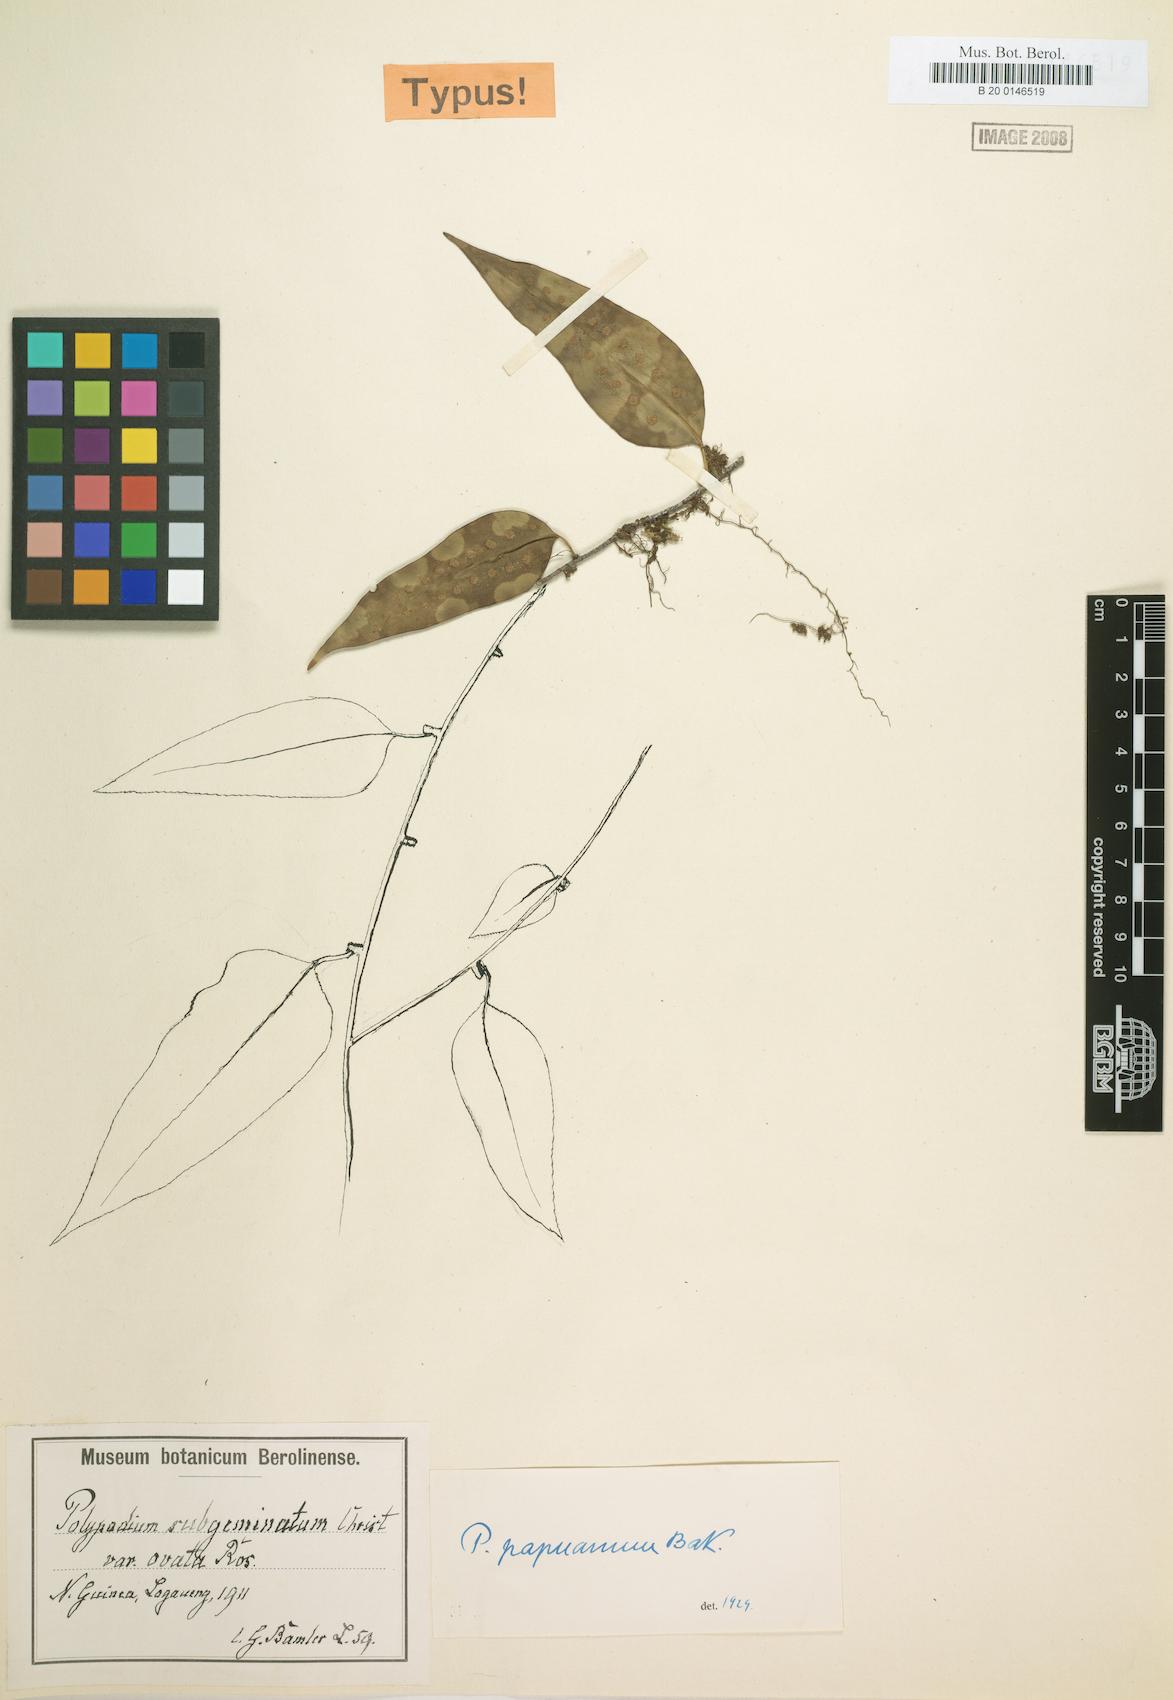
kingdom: Plantae
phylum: Tracheophyta
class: Polypodiopsida
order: Polypodiales
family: Polypodiaceae
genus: Microsorum
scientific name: Microsorum papuanum
